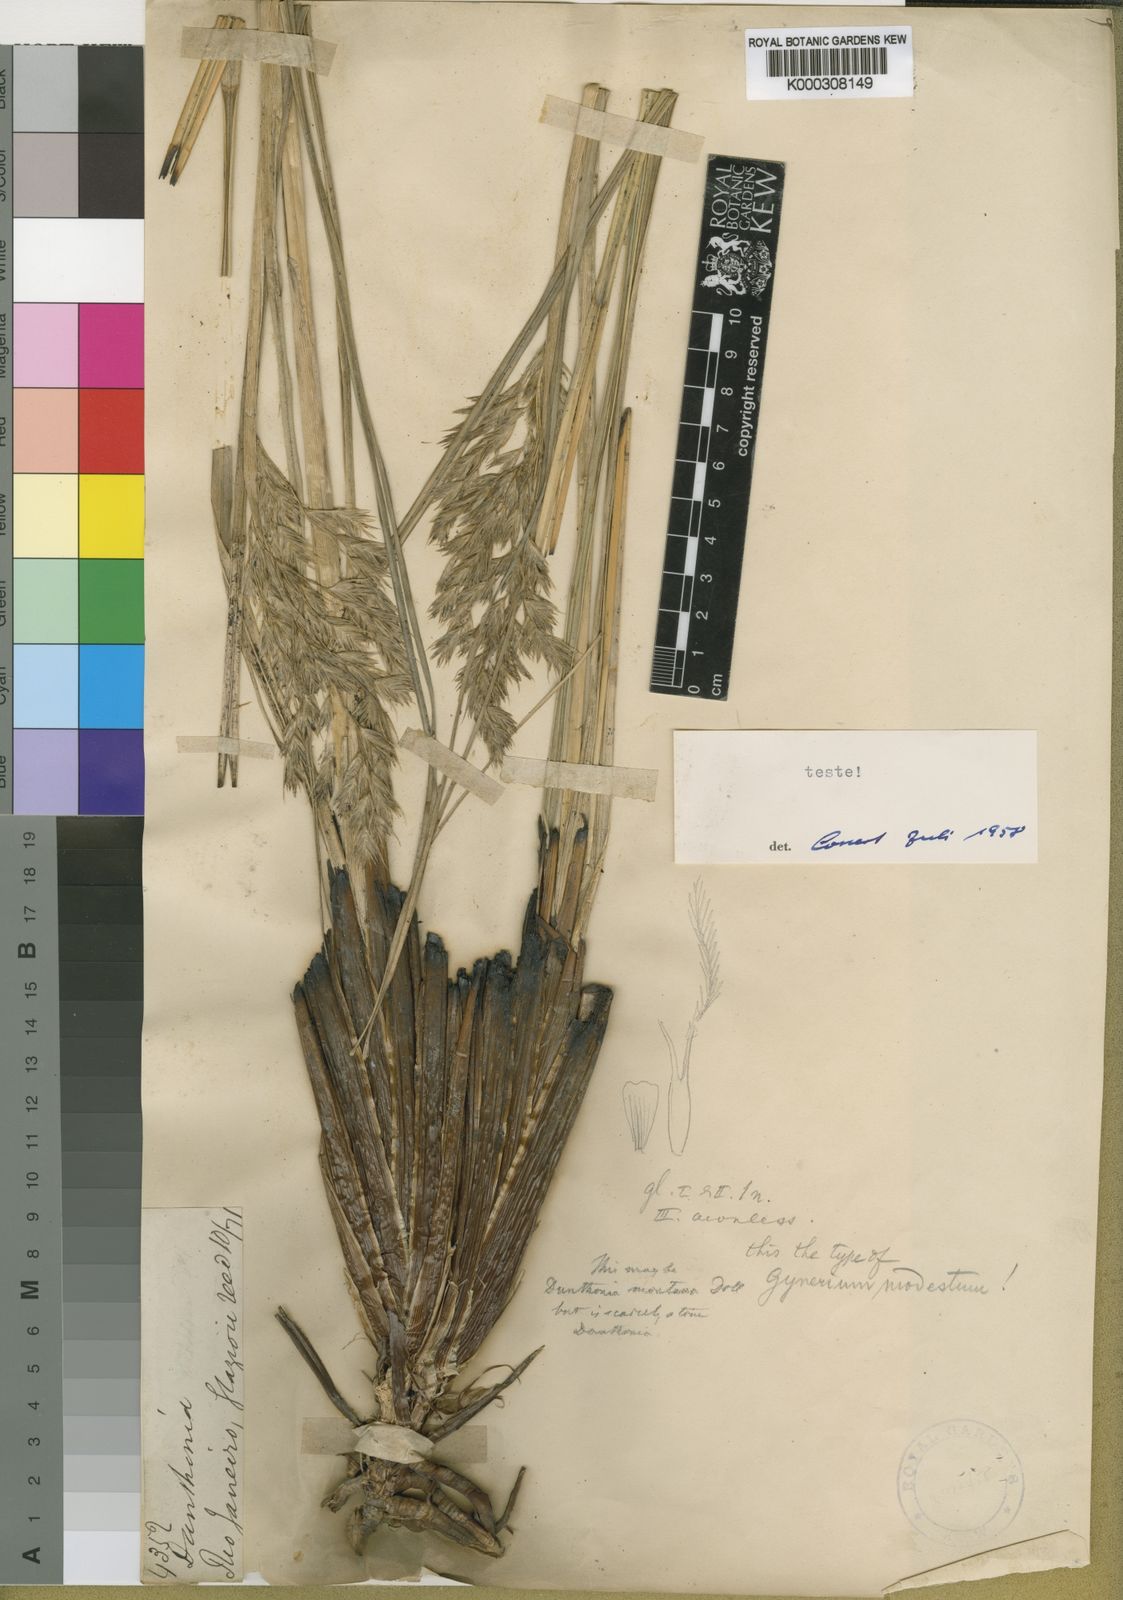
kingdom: Plantae
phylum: Tracheophyta
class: Liliopsida
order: Poales
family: Poaceae
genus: Cortaderia
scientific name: Cortaderia modesta
